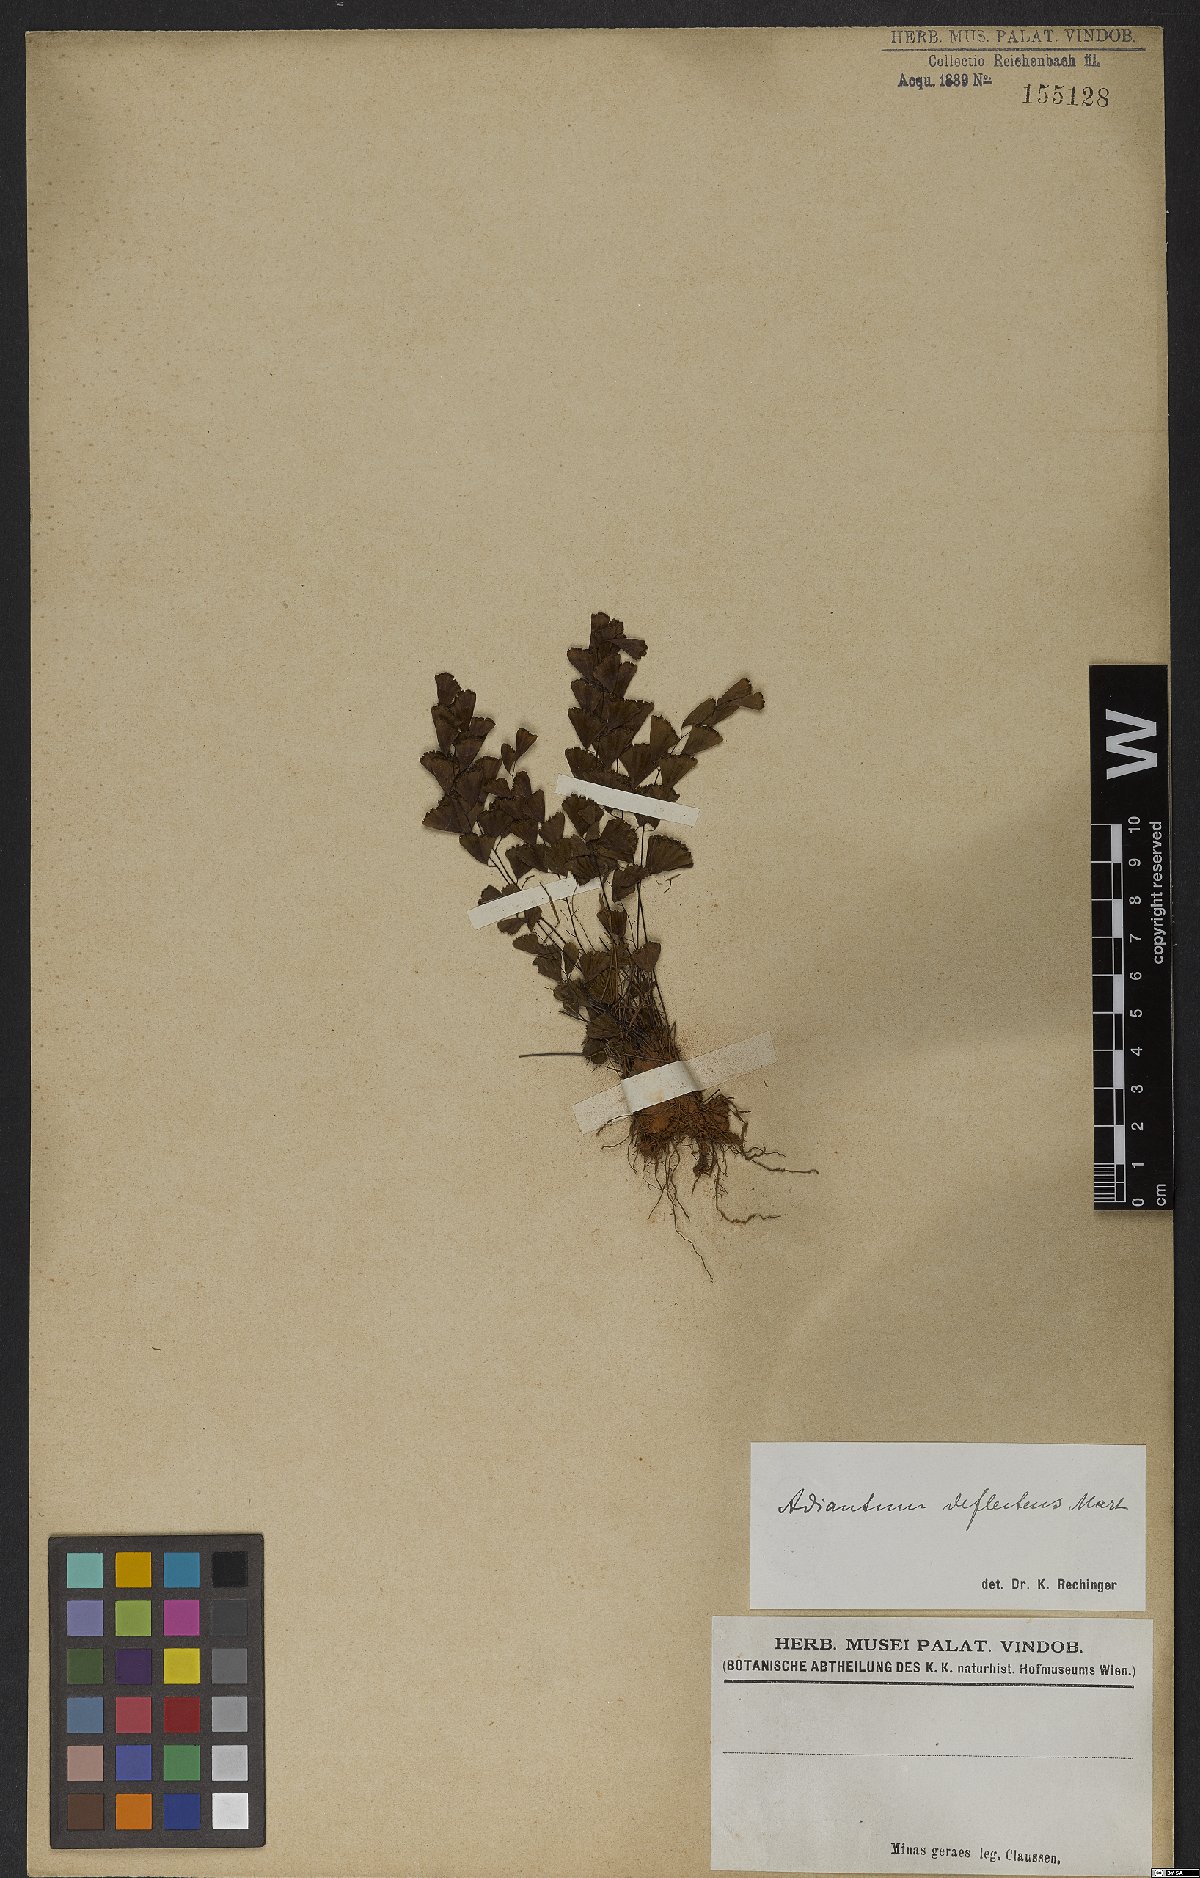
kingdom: Plantae
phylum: Tracheophyta
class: Polypodiopsida
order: Polypodiales
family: Pteridaceae
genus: Adiantum
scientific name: Adiantum deflectens
